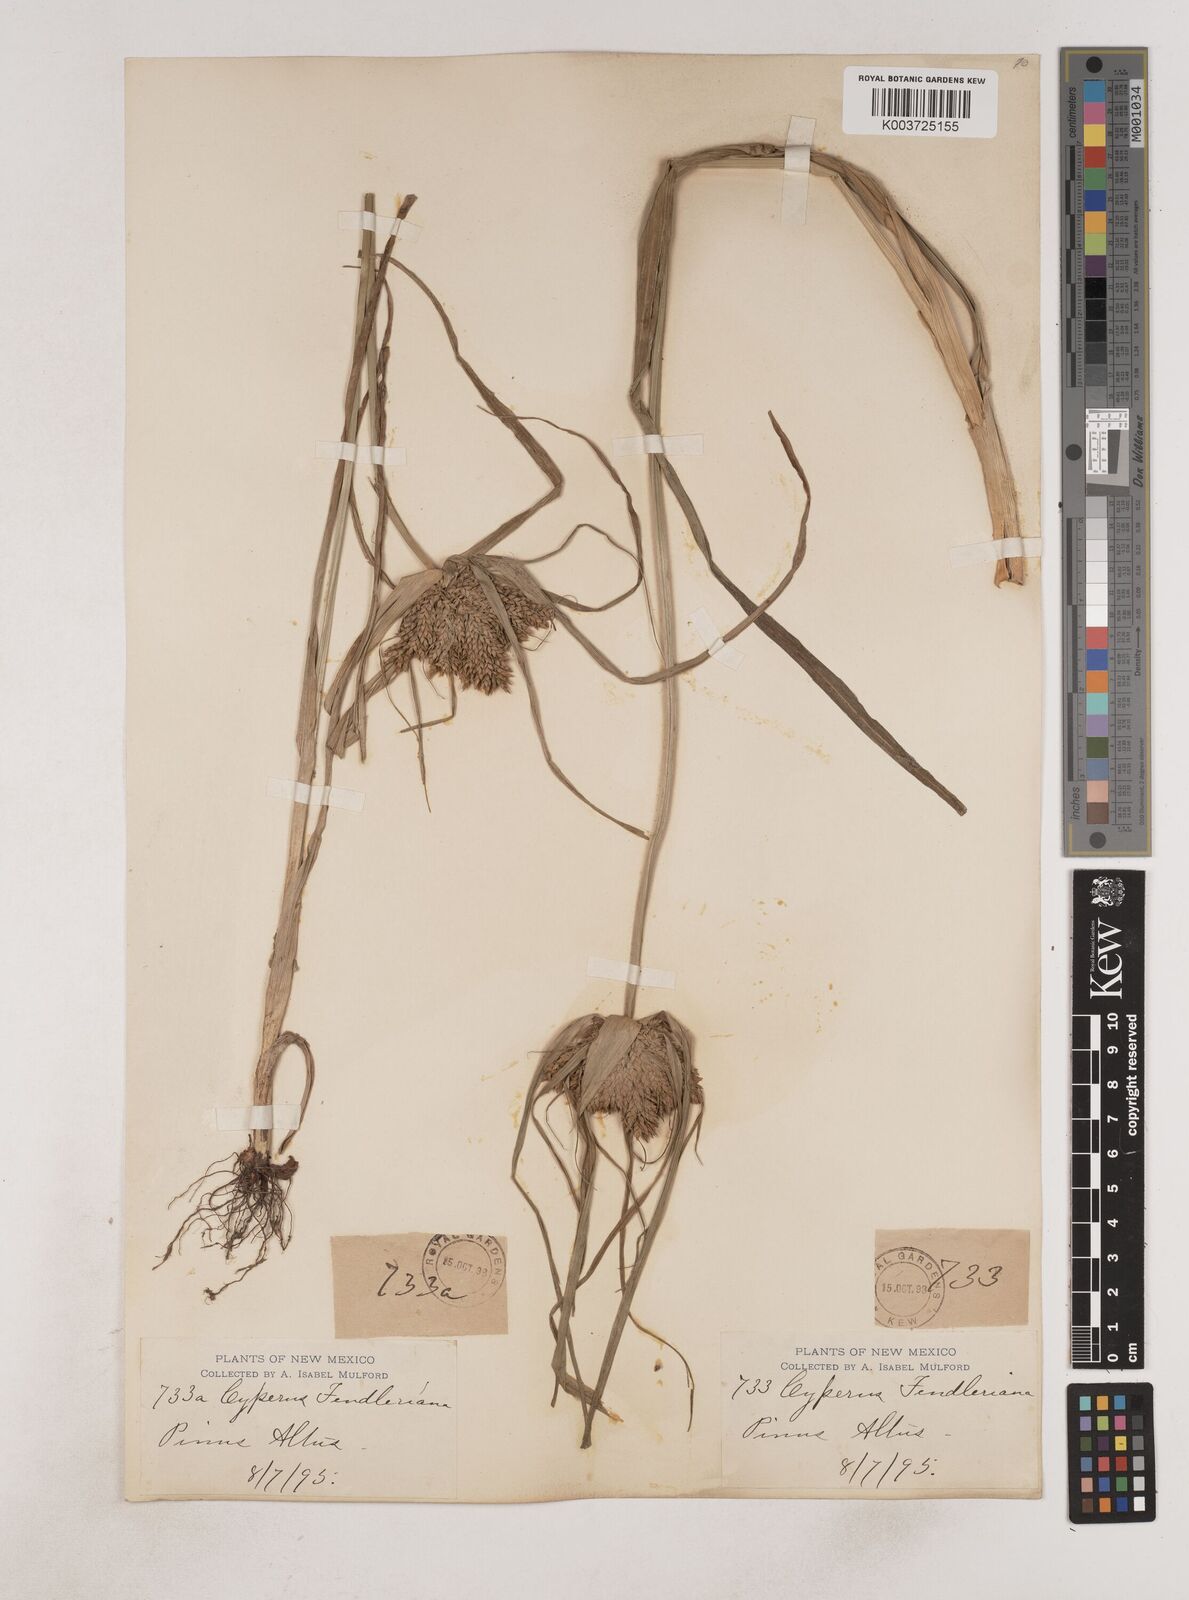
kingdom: Plantae
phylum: Tracheophyta
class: Liliopsida
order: Poales
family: Cyperaceae
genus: Cyperus
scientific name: Cyperus fendlerianus
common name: Fendler flat sedge
